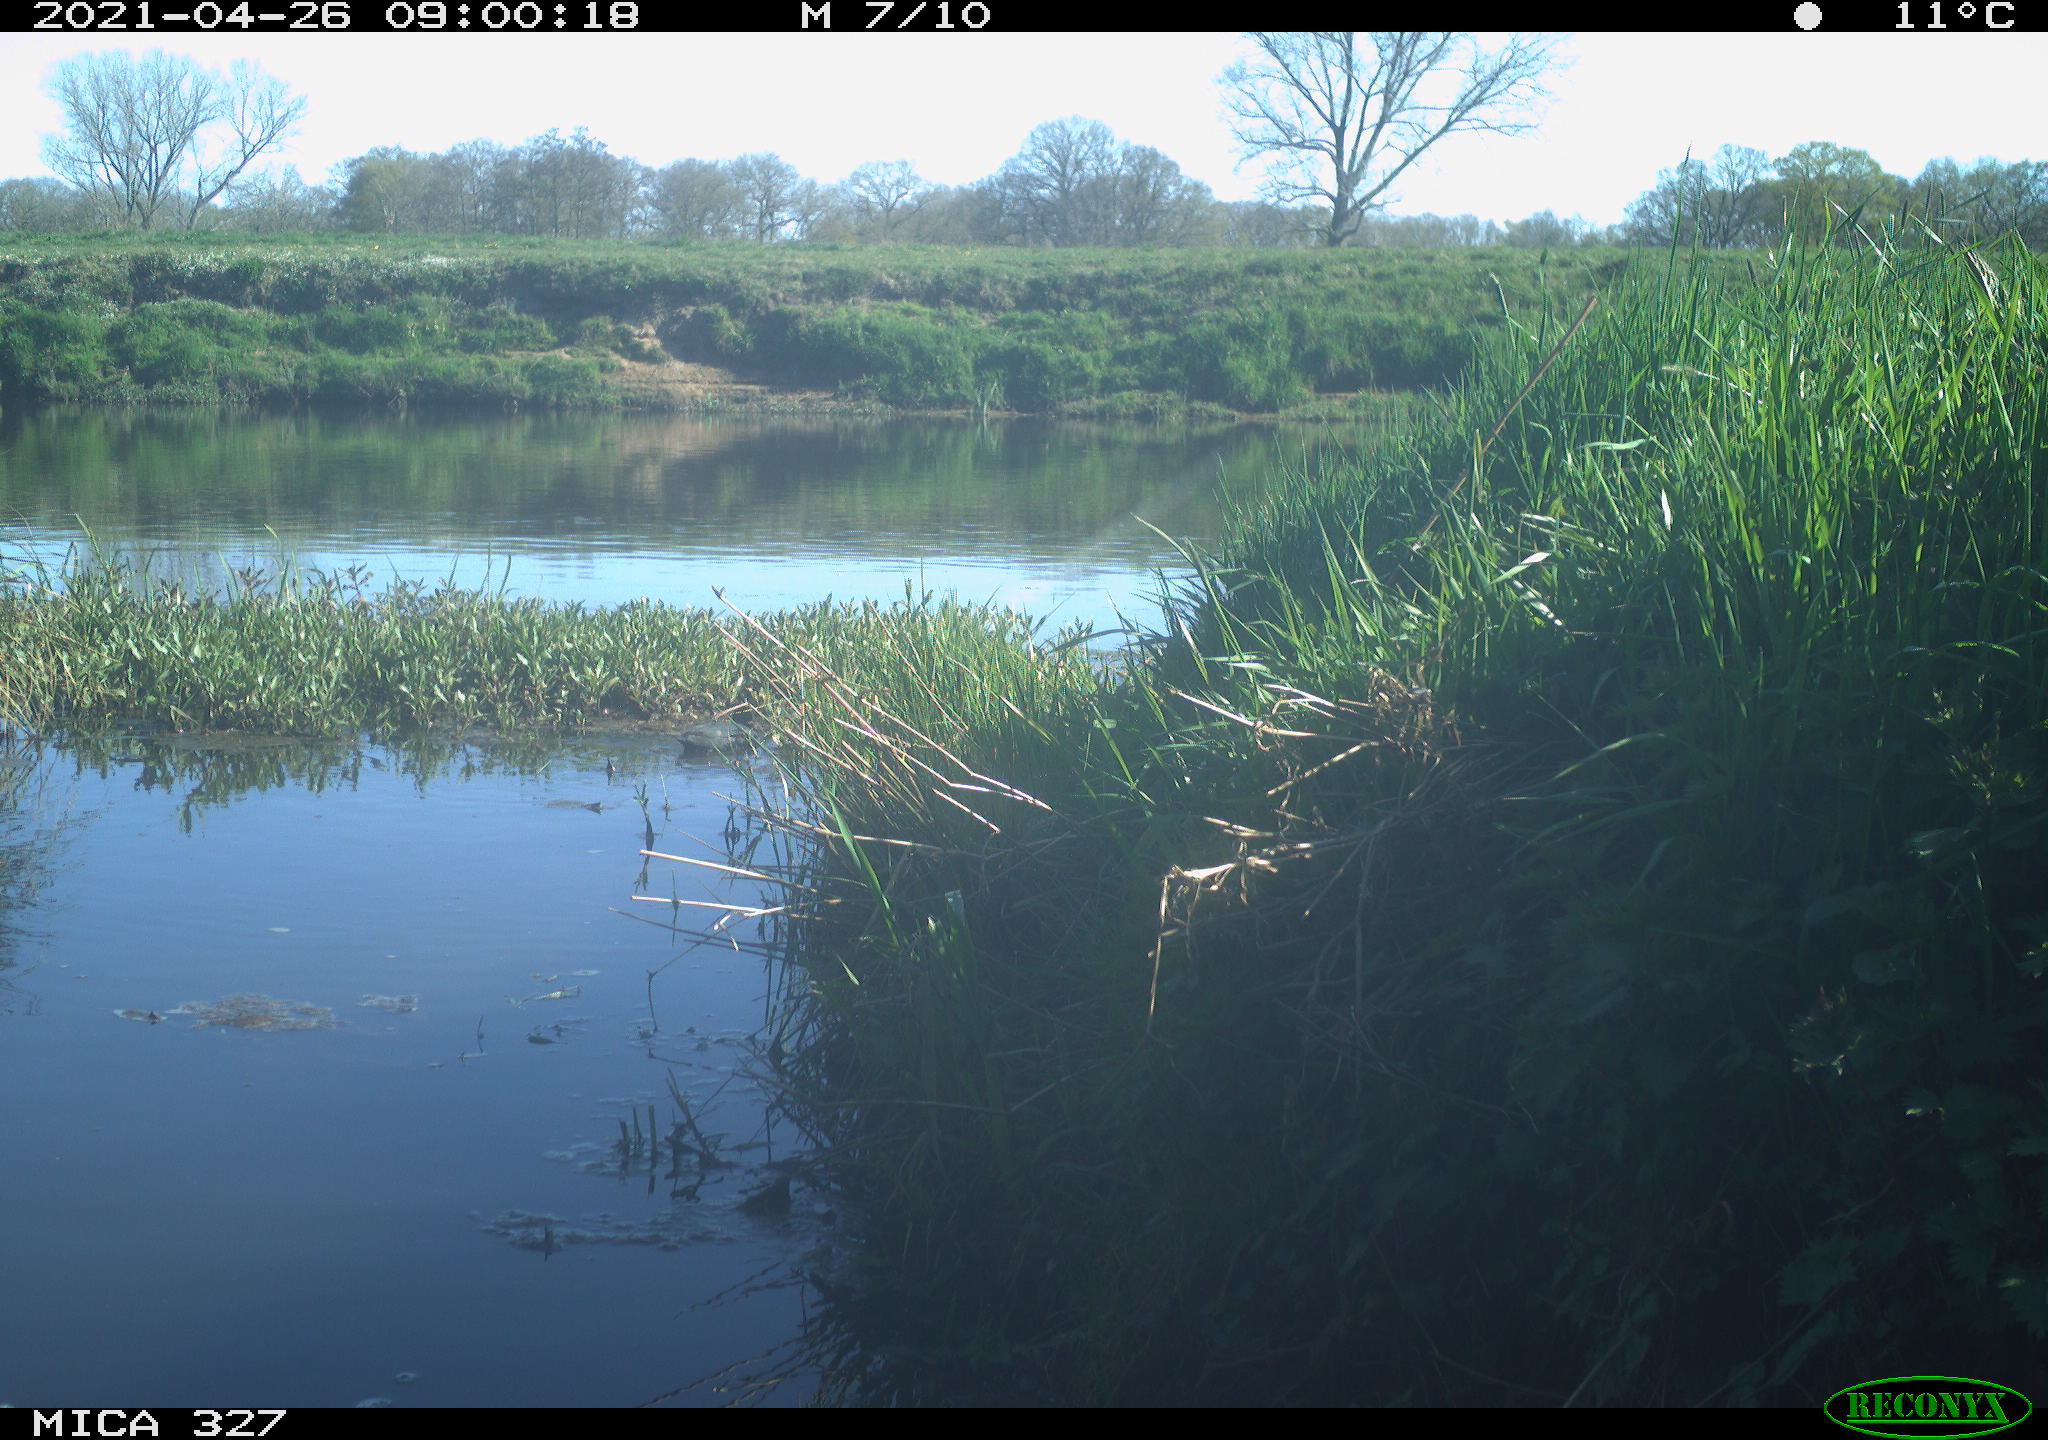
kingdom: Animalia
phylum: Chordata
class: Aves
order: Gruiformes
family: Rallidae
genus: Fulica
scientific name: Fulica atra
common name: Eurasian coot
